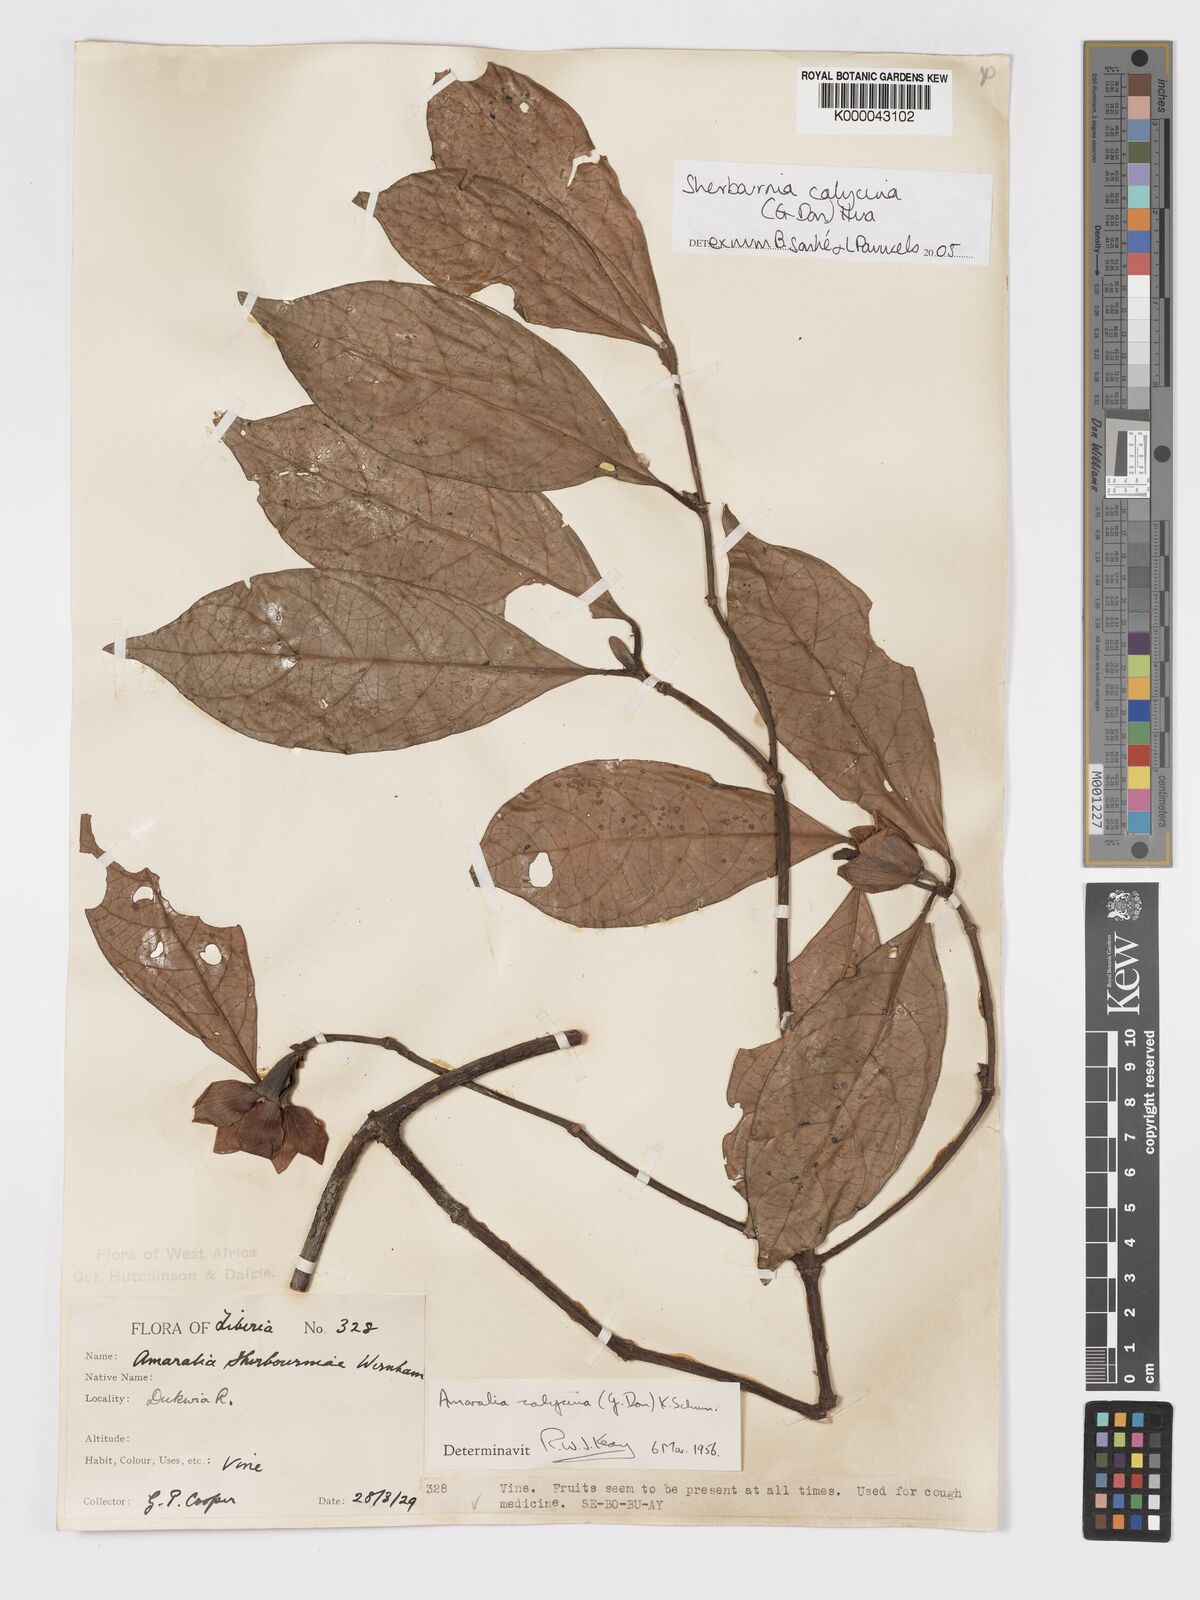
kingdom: Plantae
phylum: Tracheophyta
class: Magnoliopsida
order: Gentianales
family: Rubiaceae
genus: Sherbournia
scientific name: Sherbournia calycina
